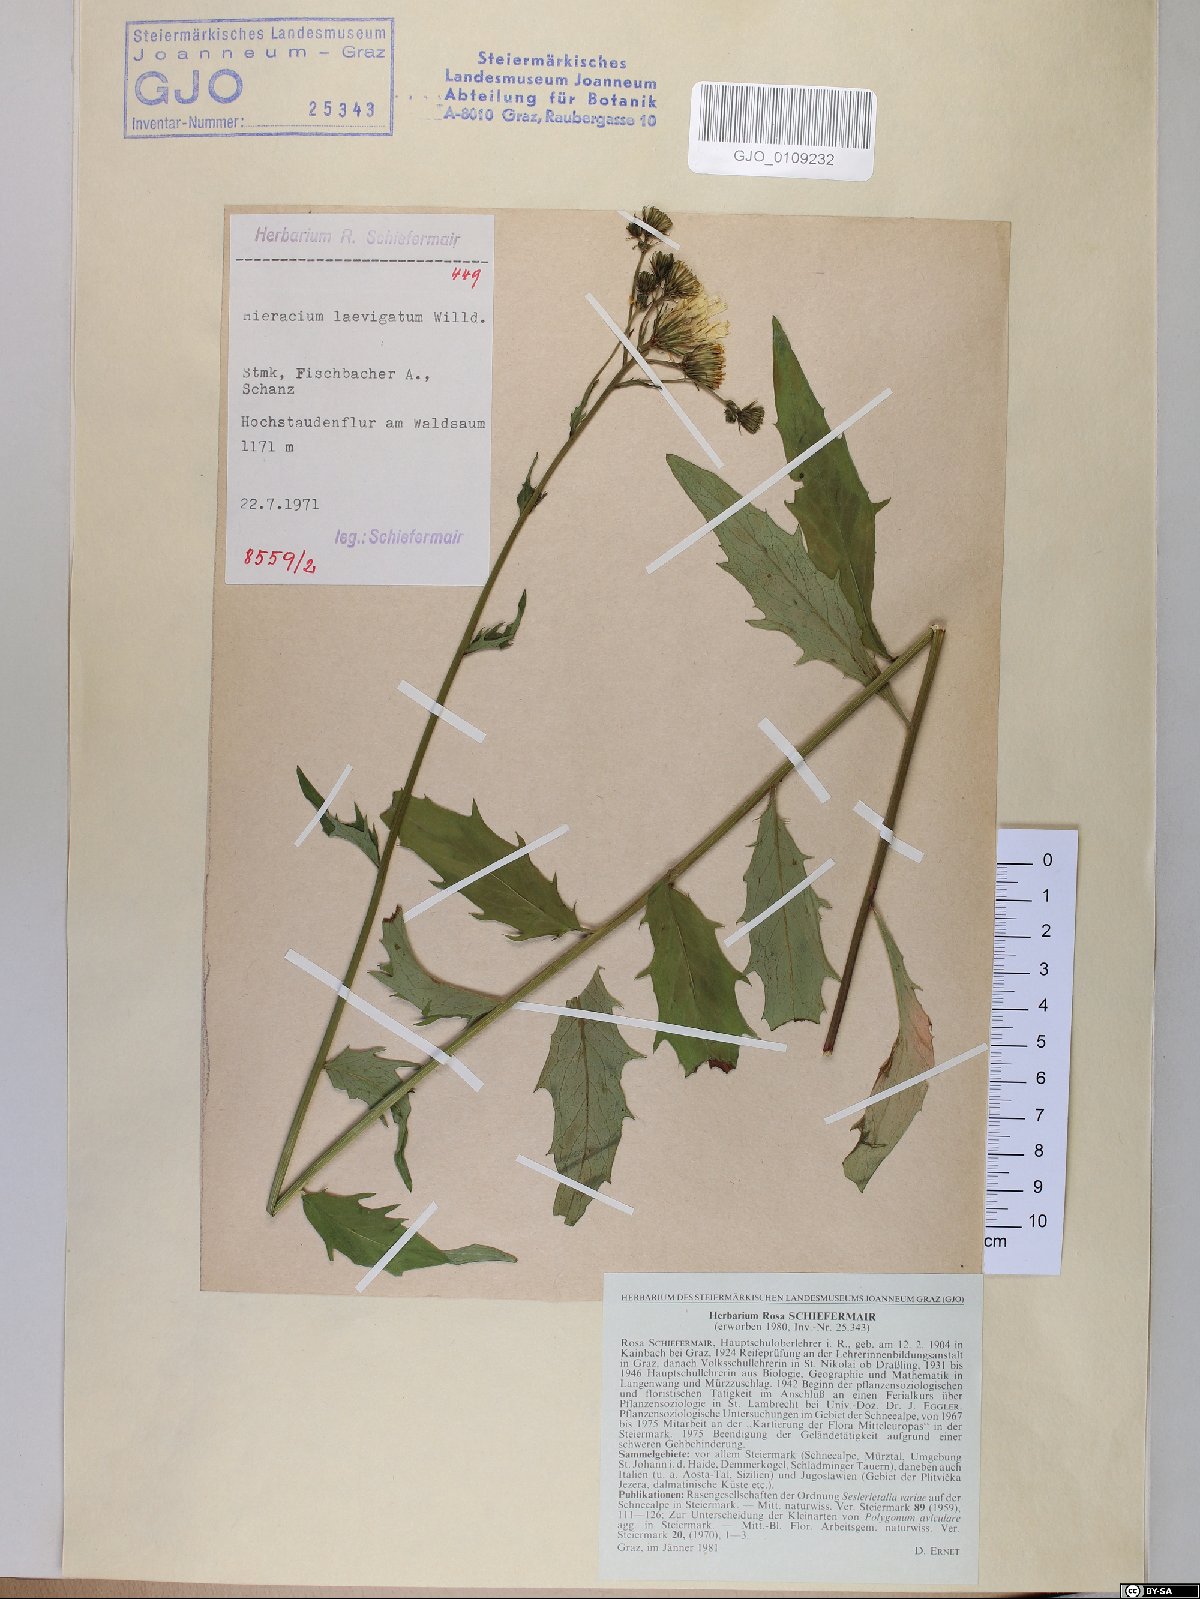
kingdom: Plantae
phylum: Tracheophyta
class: Magnoliopsida
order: Asterales
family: Asteraceae
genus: Hieracium
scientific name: Hieracium laevigatum
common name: Smooth hawkweed
